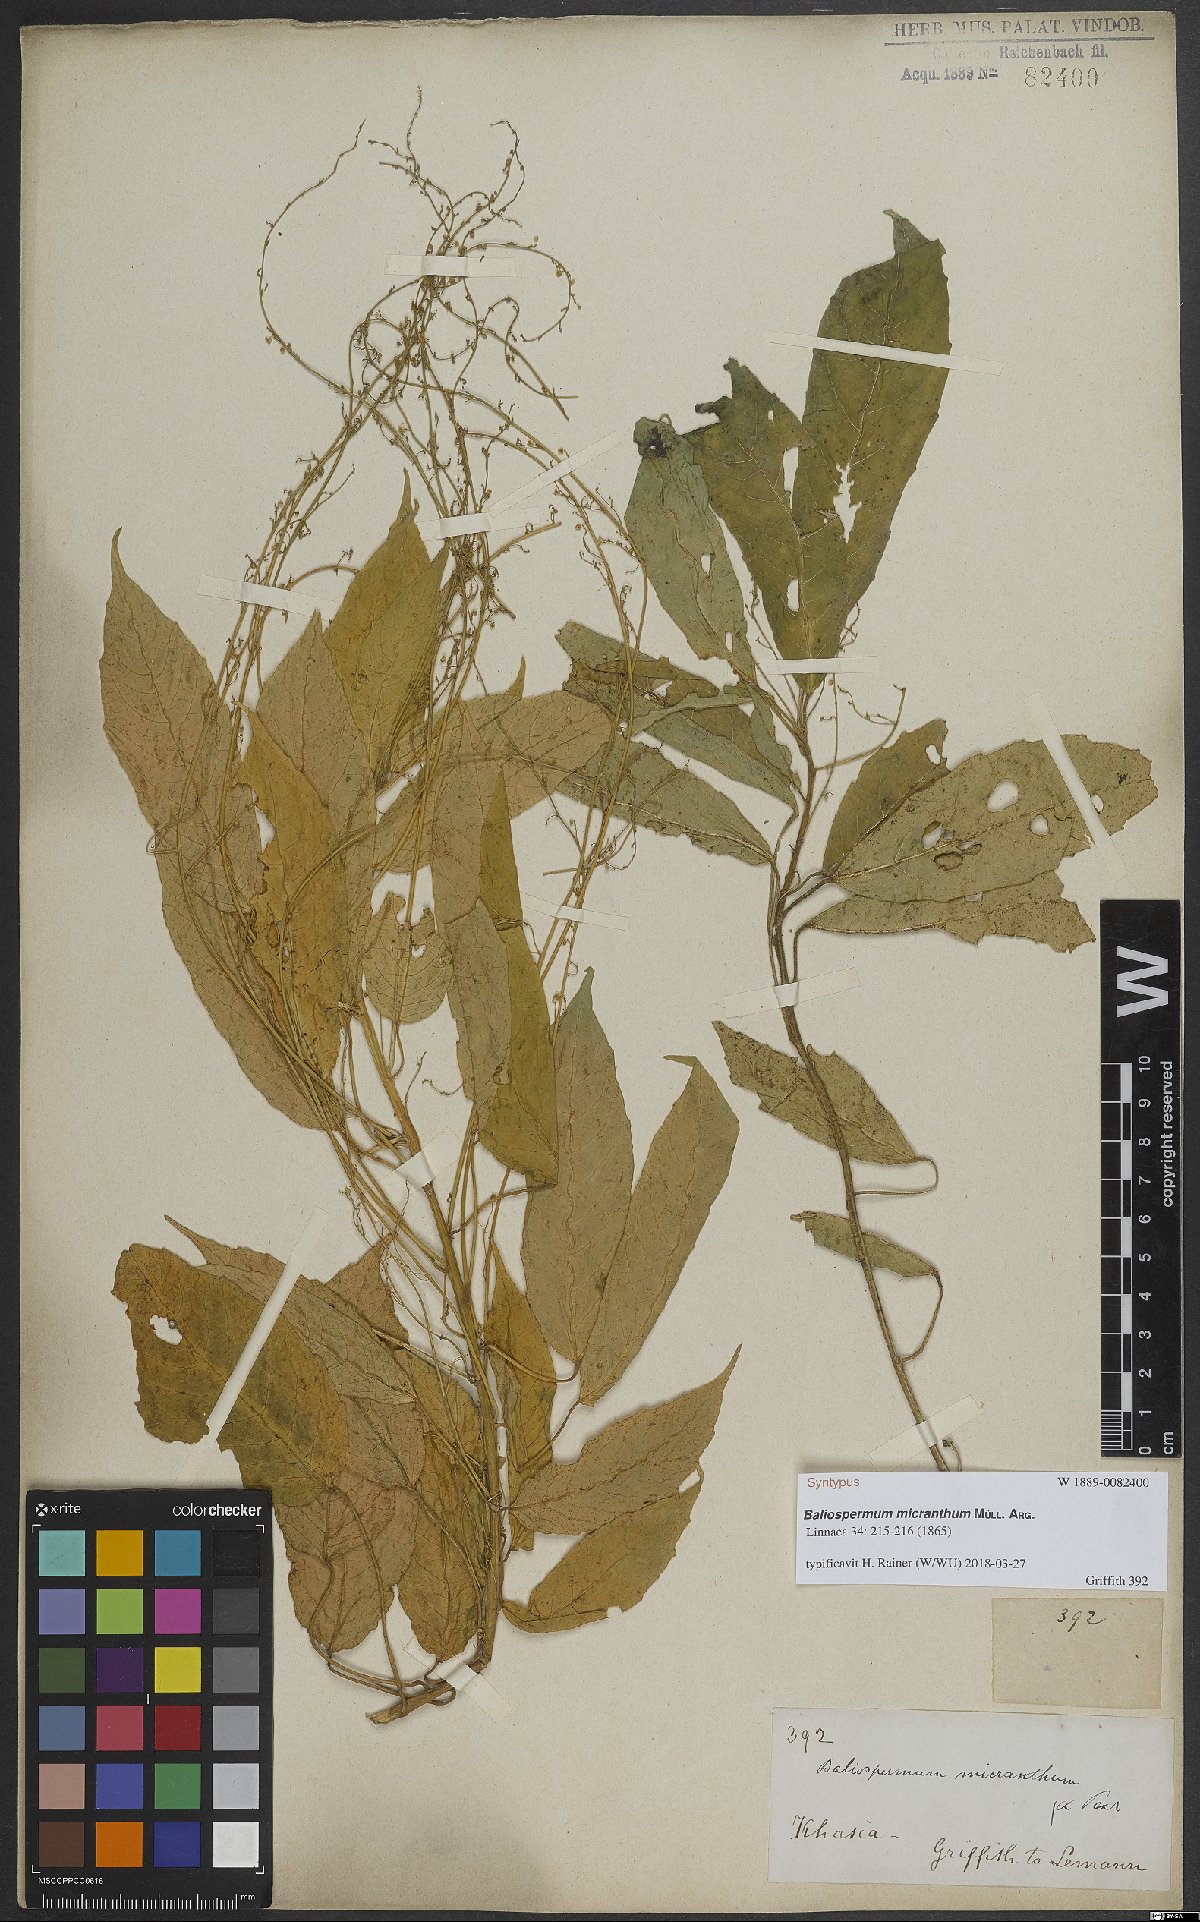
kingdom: Plantae
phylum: Tracheophyta
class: Magnoliopsida
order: Malpighiales
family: Euphorbiaceae
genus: Baliospermum
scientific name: Baliospermum calycinum
